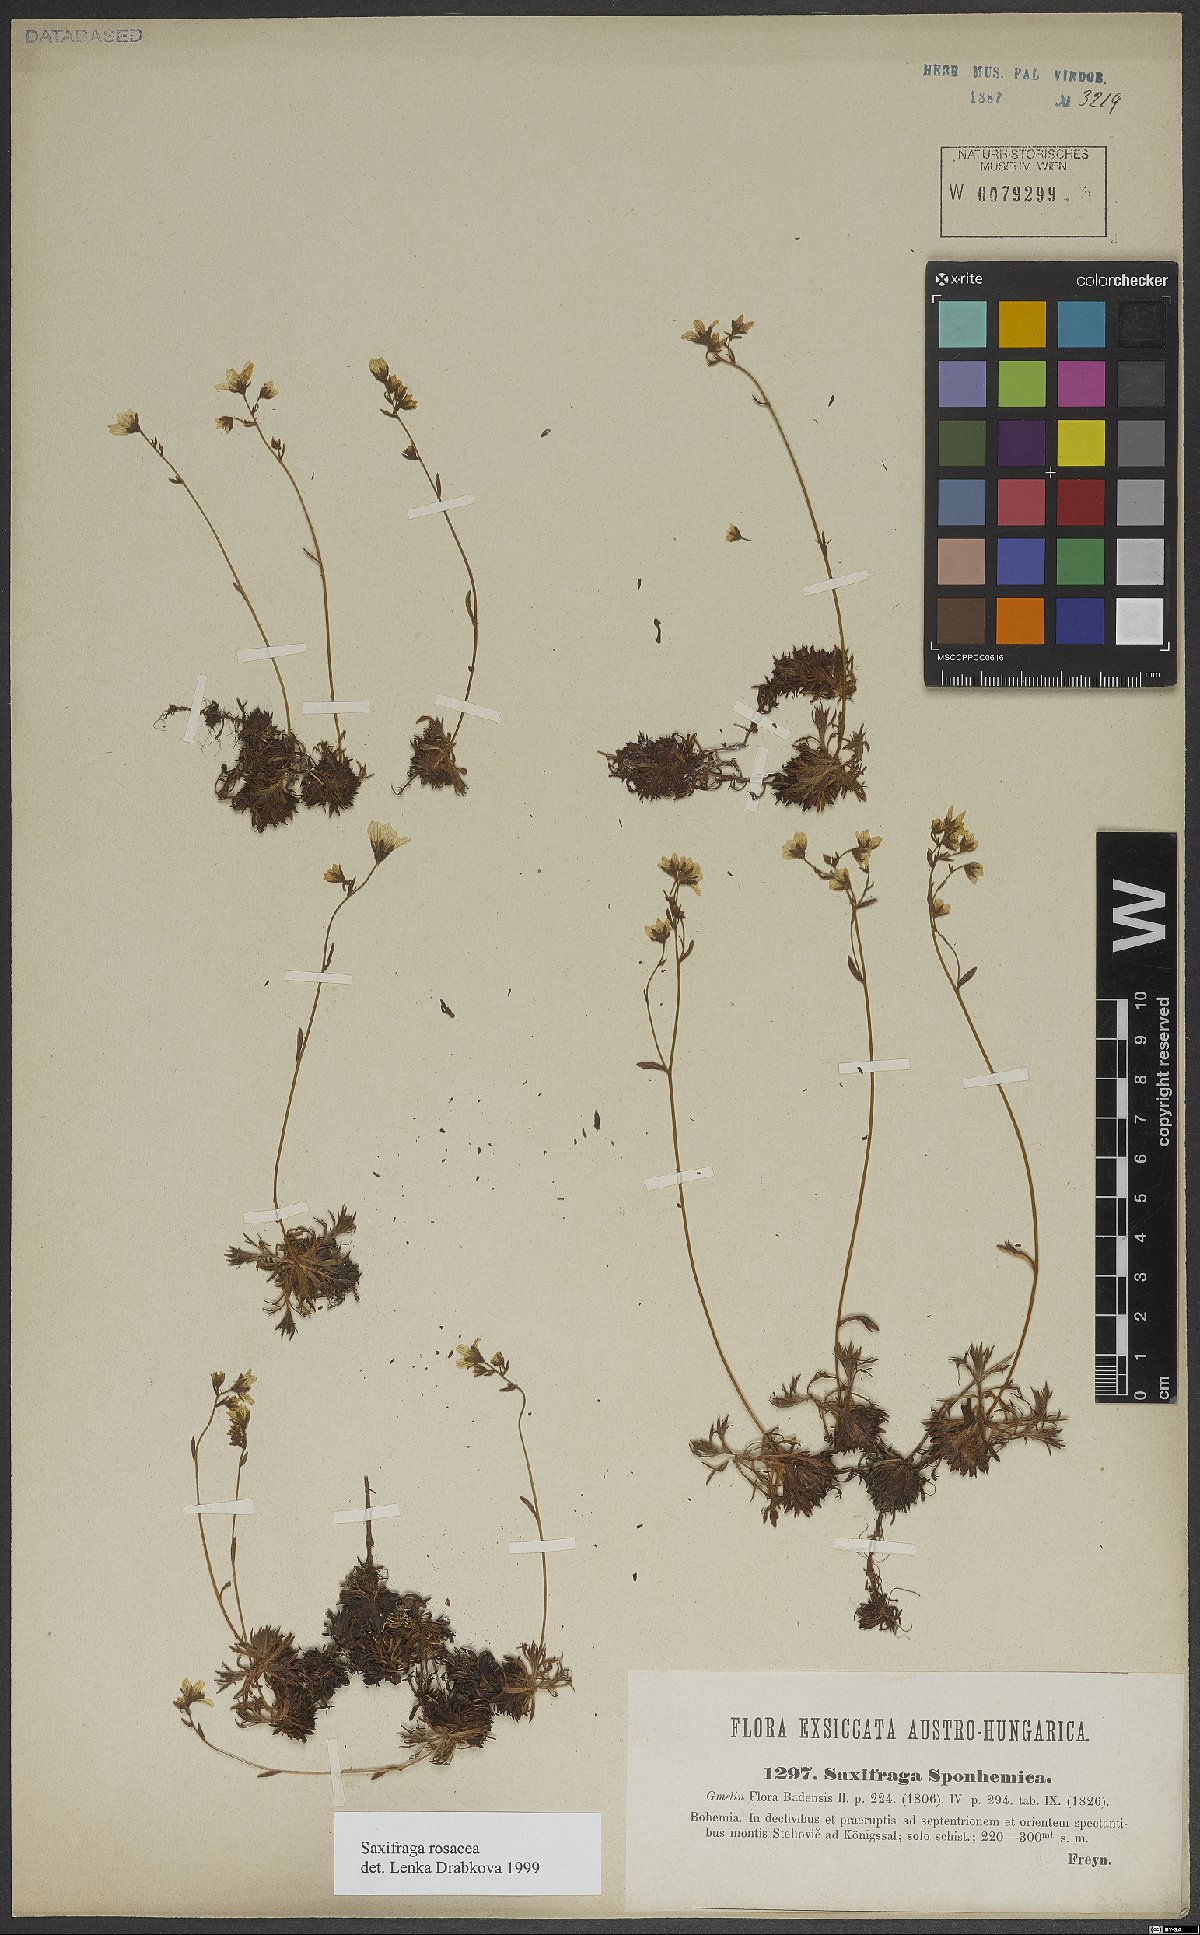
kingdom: Plantae
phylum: Tracheophyta
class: Magnoliopsida
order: Saxifragales
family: Saxifragaceae
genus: Saxifraga
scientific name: Saxifraga rosacea
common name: Irish saxifrage
